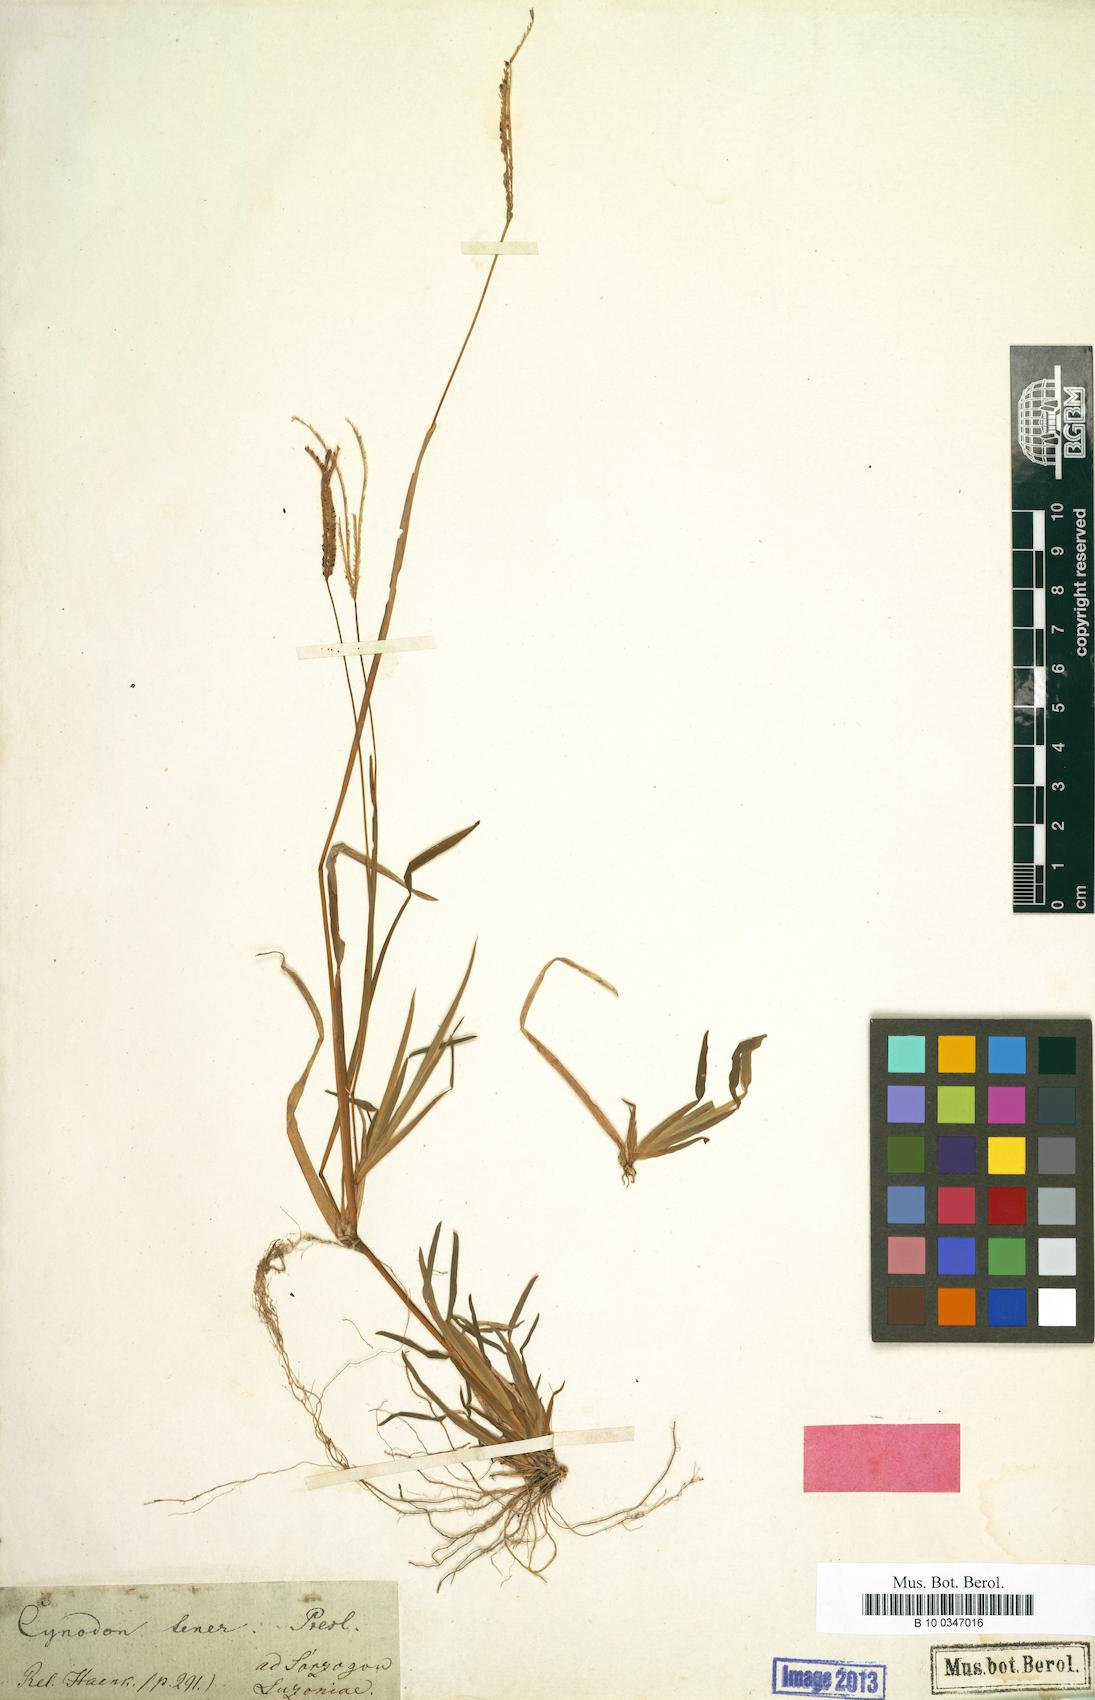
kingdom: Plantae
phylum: Tracheophyta
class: Liliopsida
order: Poales
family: Poaceae
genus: Eustachys
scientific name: Eustachys tenera
